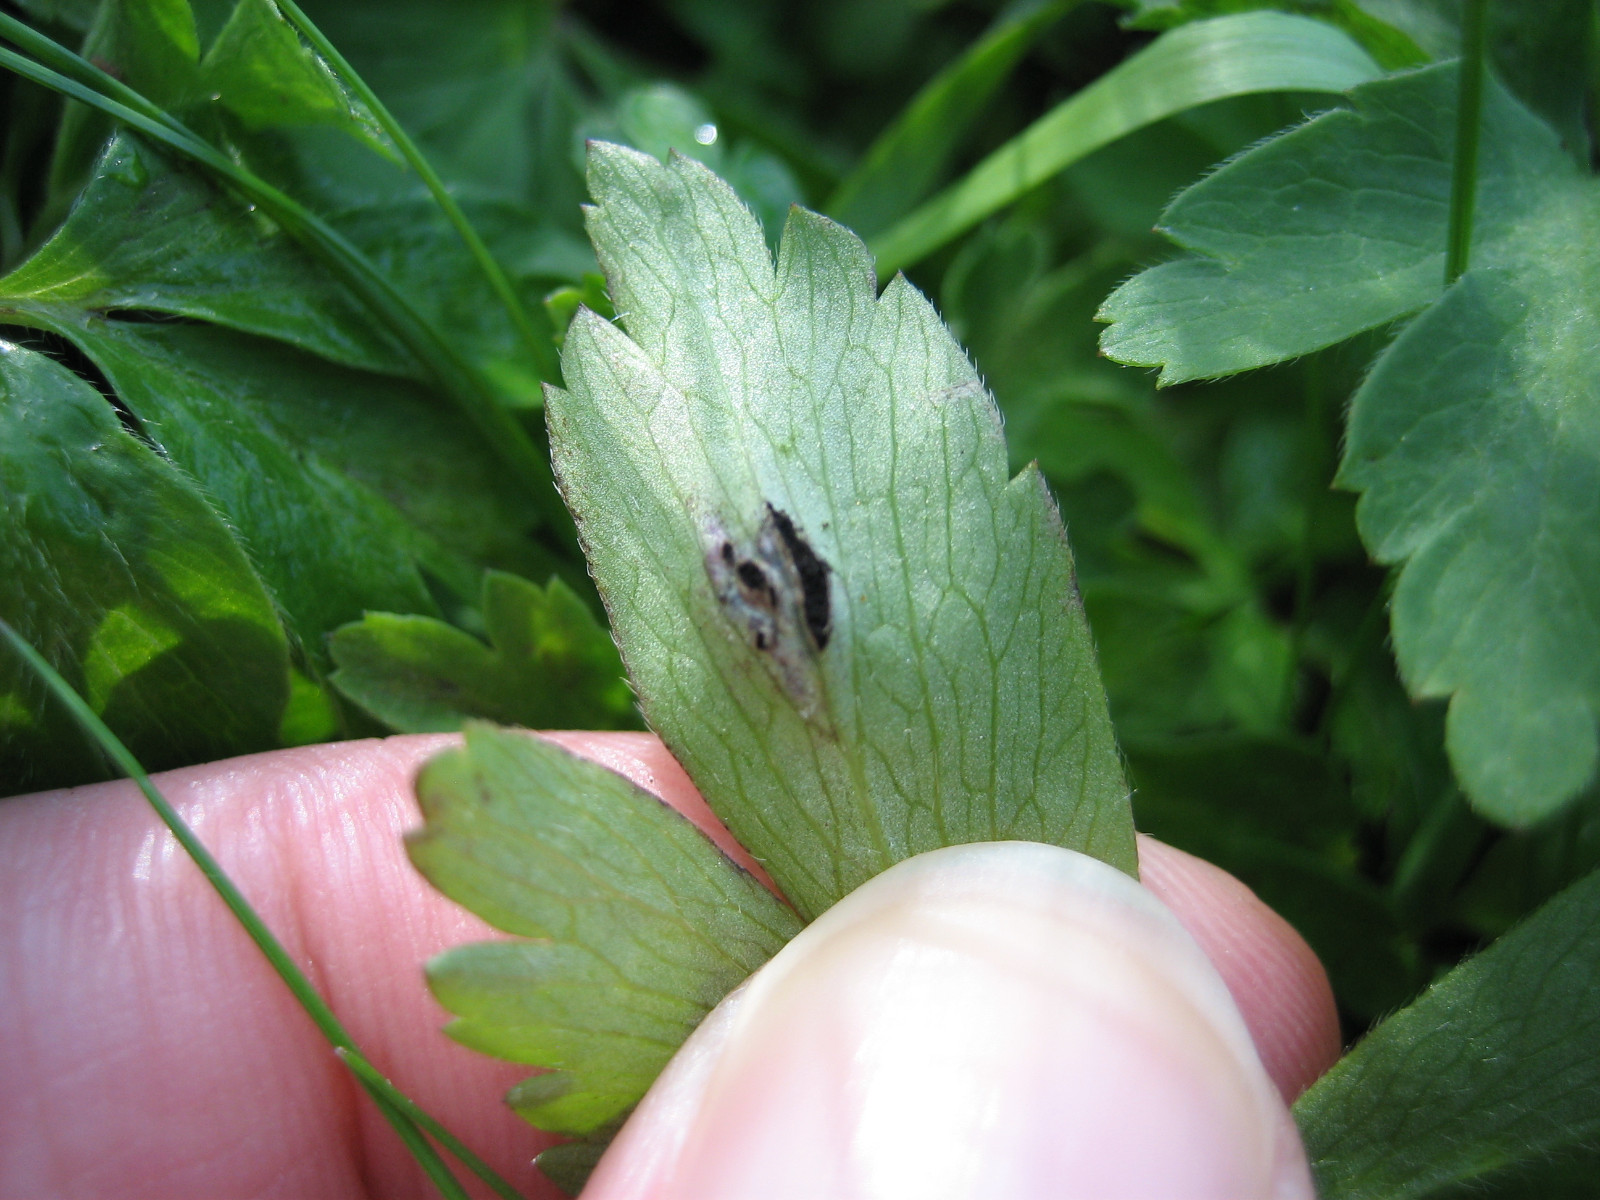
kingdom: Fungi
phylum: Basidiomycota
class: Ustilaginomycetes
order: Urocystidales
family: Urocystidaceae
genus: Urocystis
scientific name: Urocystis anemones
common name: anemone-brand
